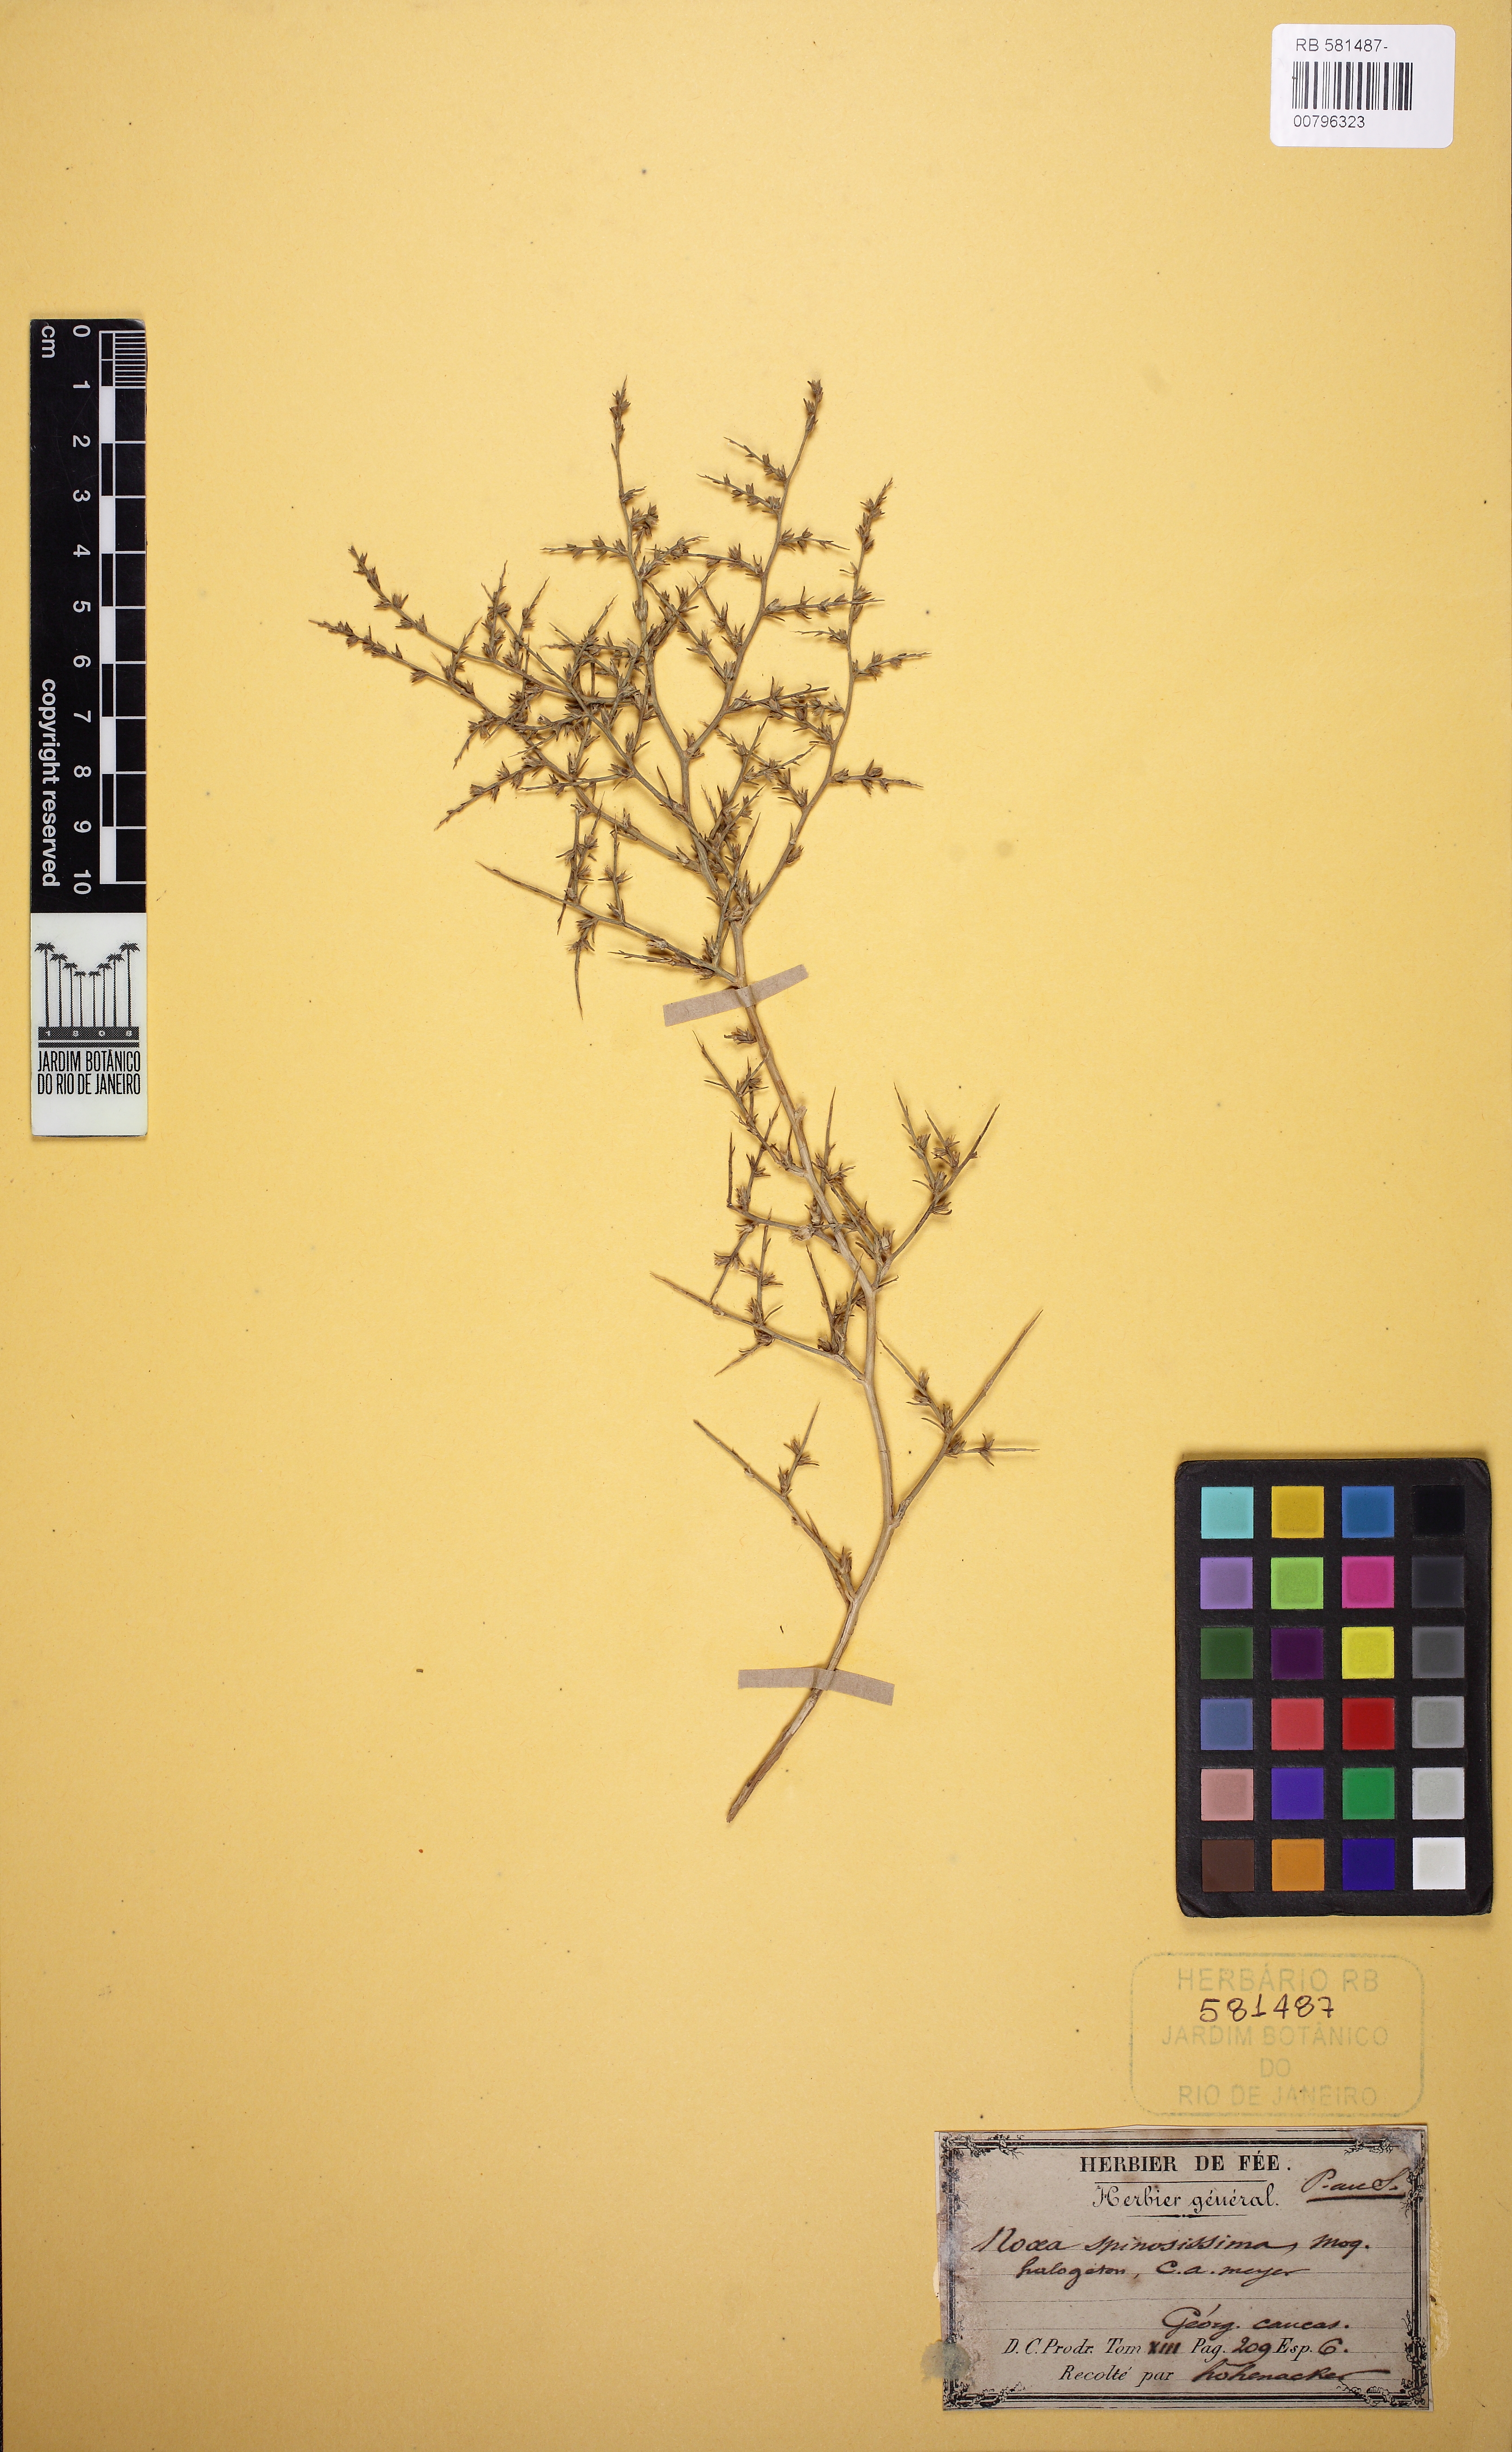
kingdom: Plantae
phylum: Tracheophyta
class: Magnoliopsida
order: Caryophyllales
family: Amaranthaceae
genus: Noaea
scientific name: Noaea mucronata
